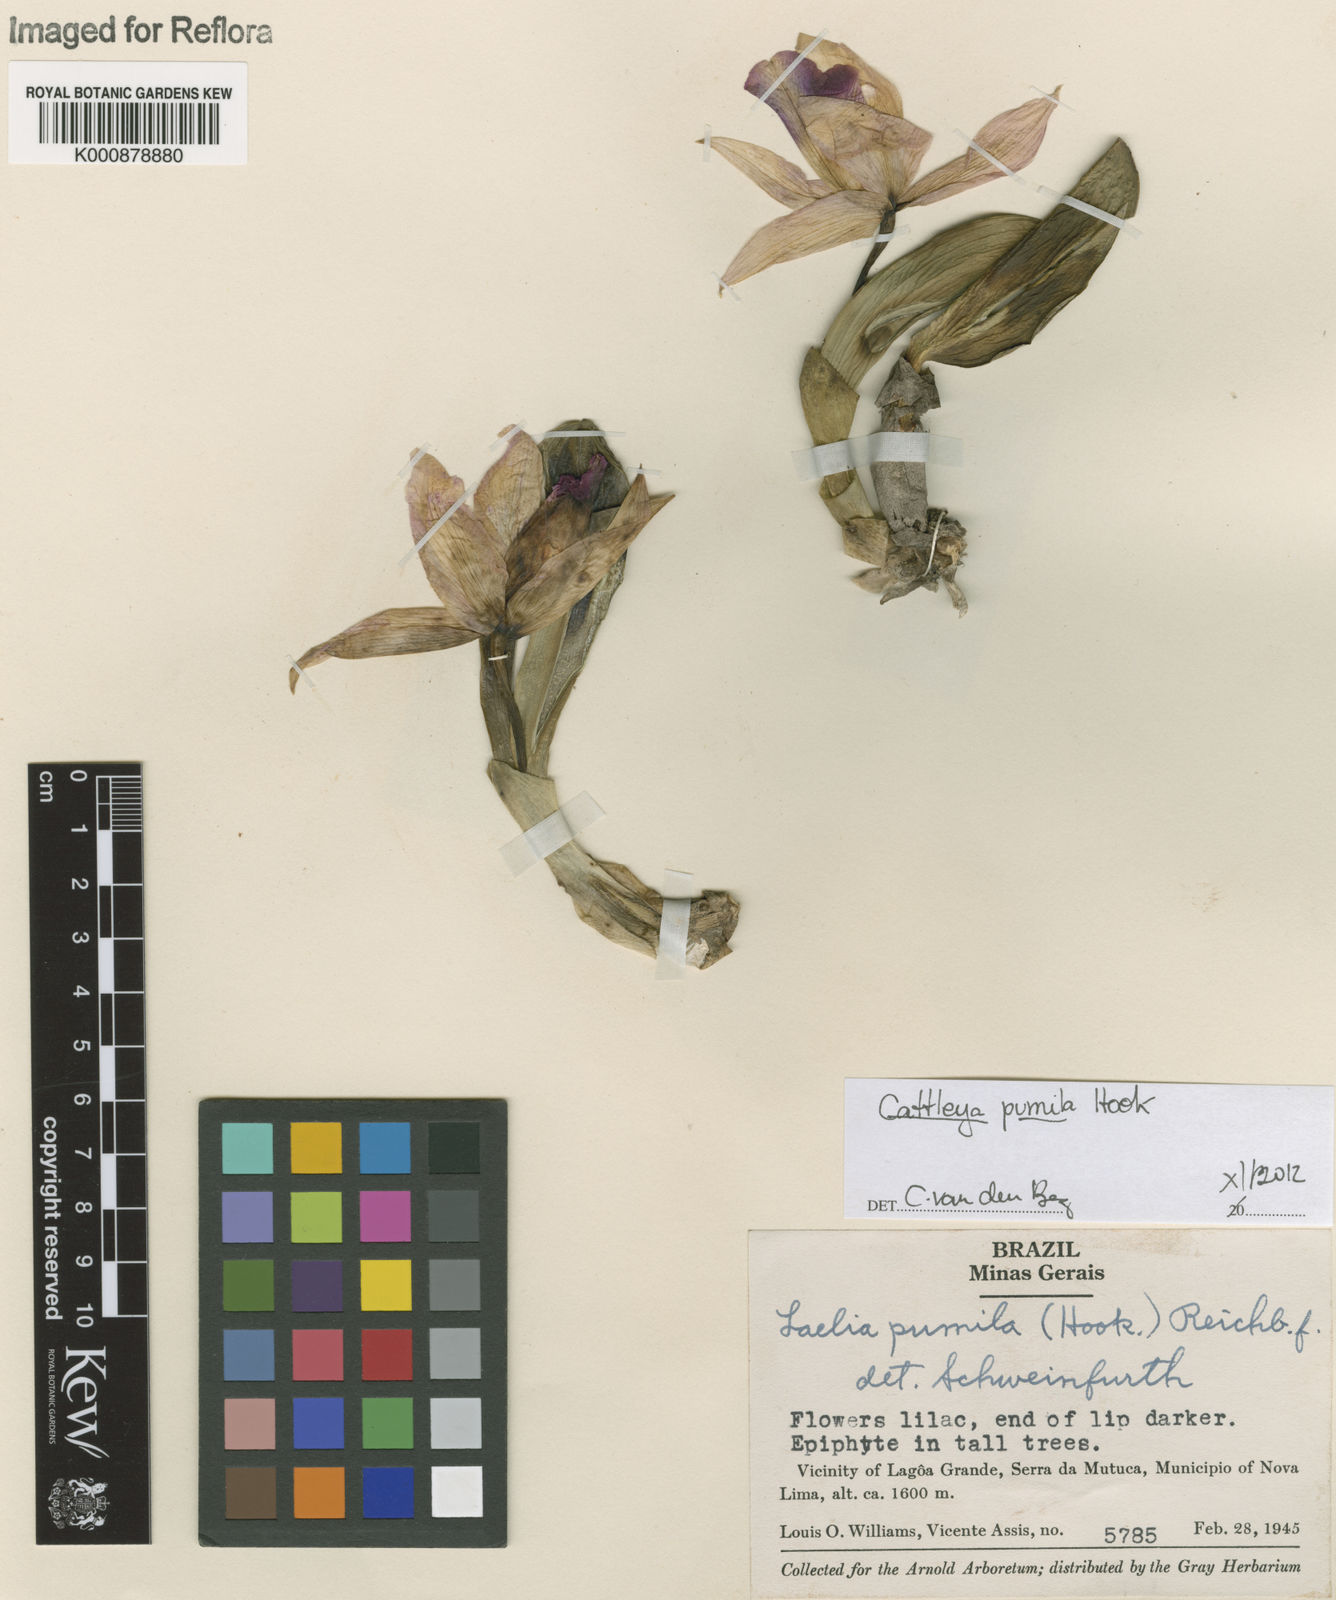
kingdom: Plantae
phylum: Tracheophyta
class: Liliopsida
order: Asparagales
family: Orchidaceae
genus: Cattleya
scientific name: Cattleya pumila
